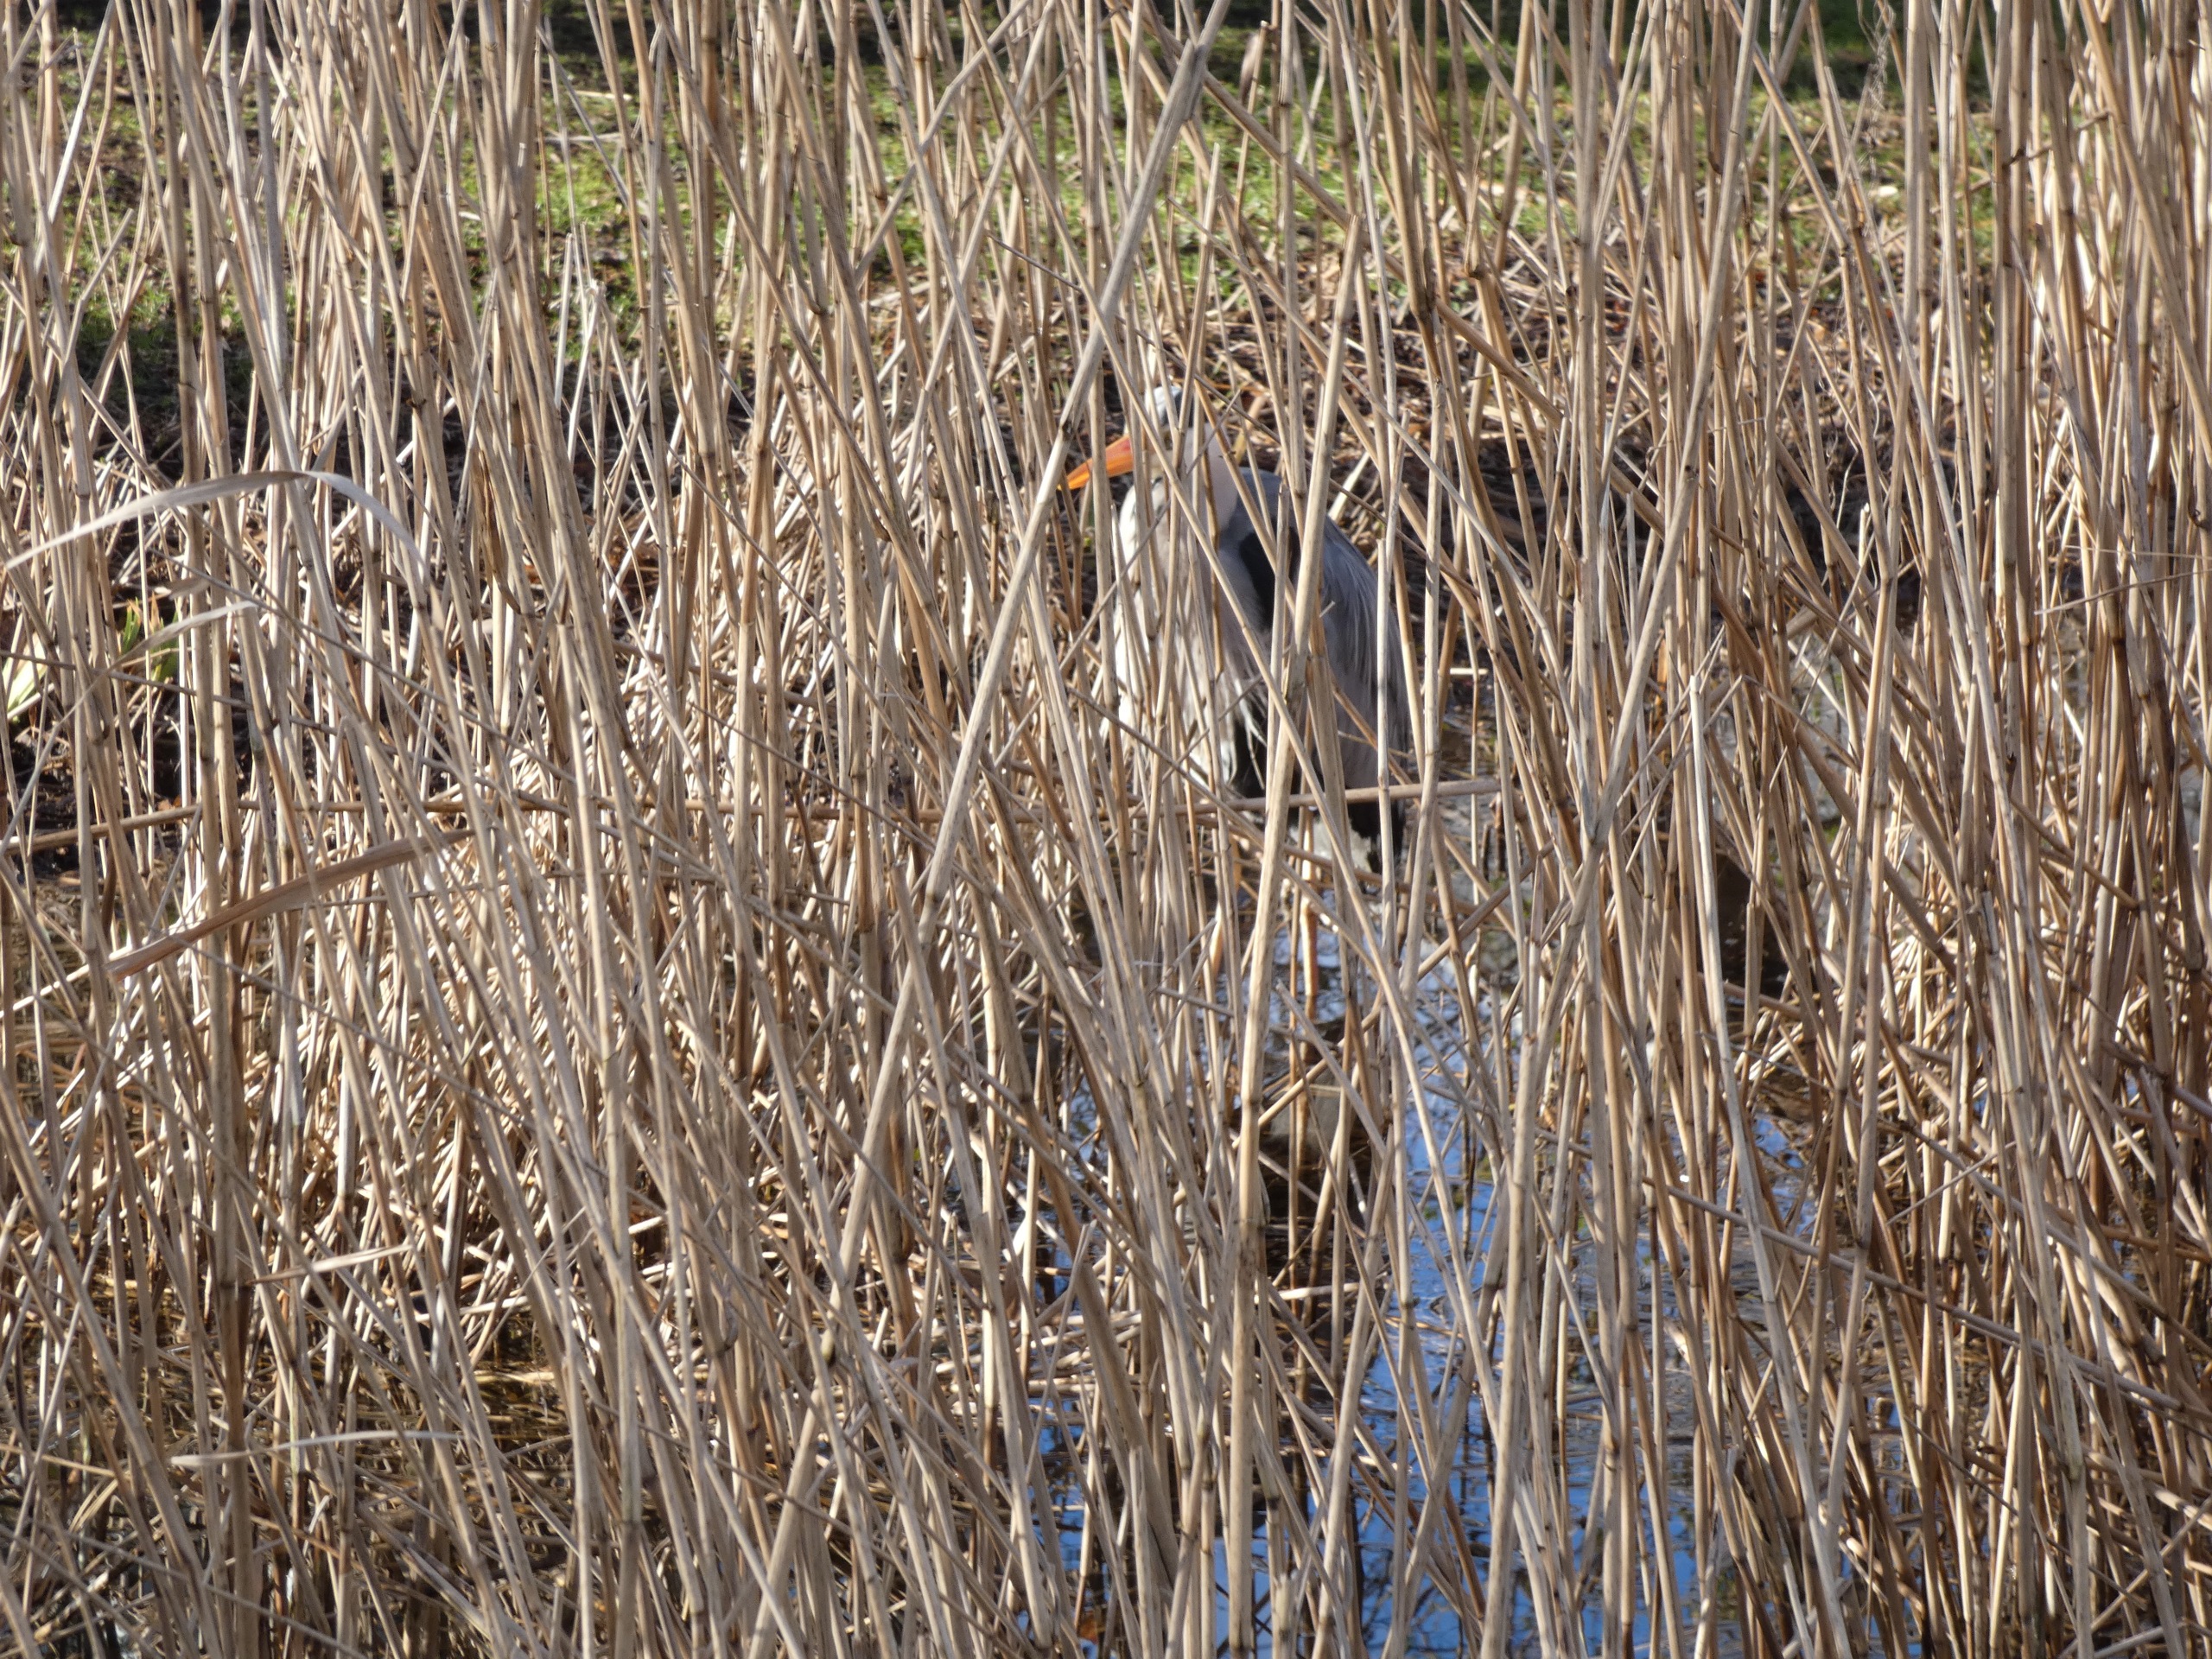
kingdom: Animalia
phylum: Chordata
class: Aves
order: Pelecaniformes
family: Ardeidae
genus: Ardea
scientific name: Ardea cinerea
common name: Fiskehejre
